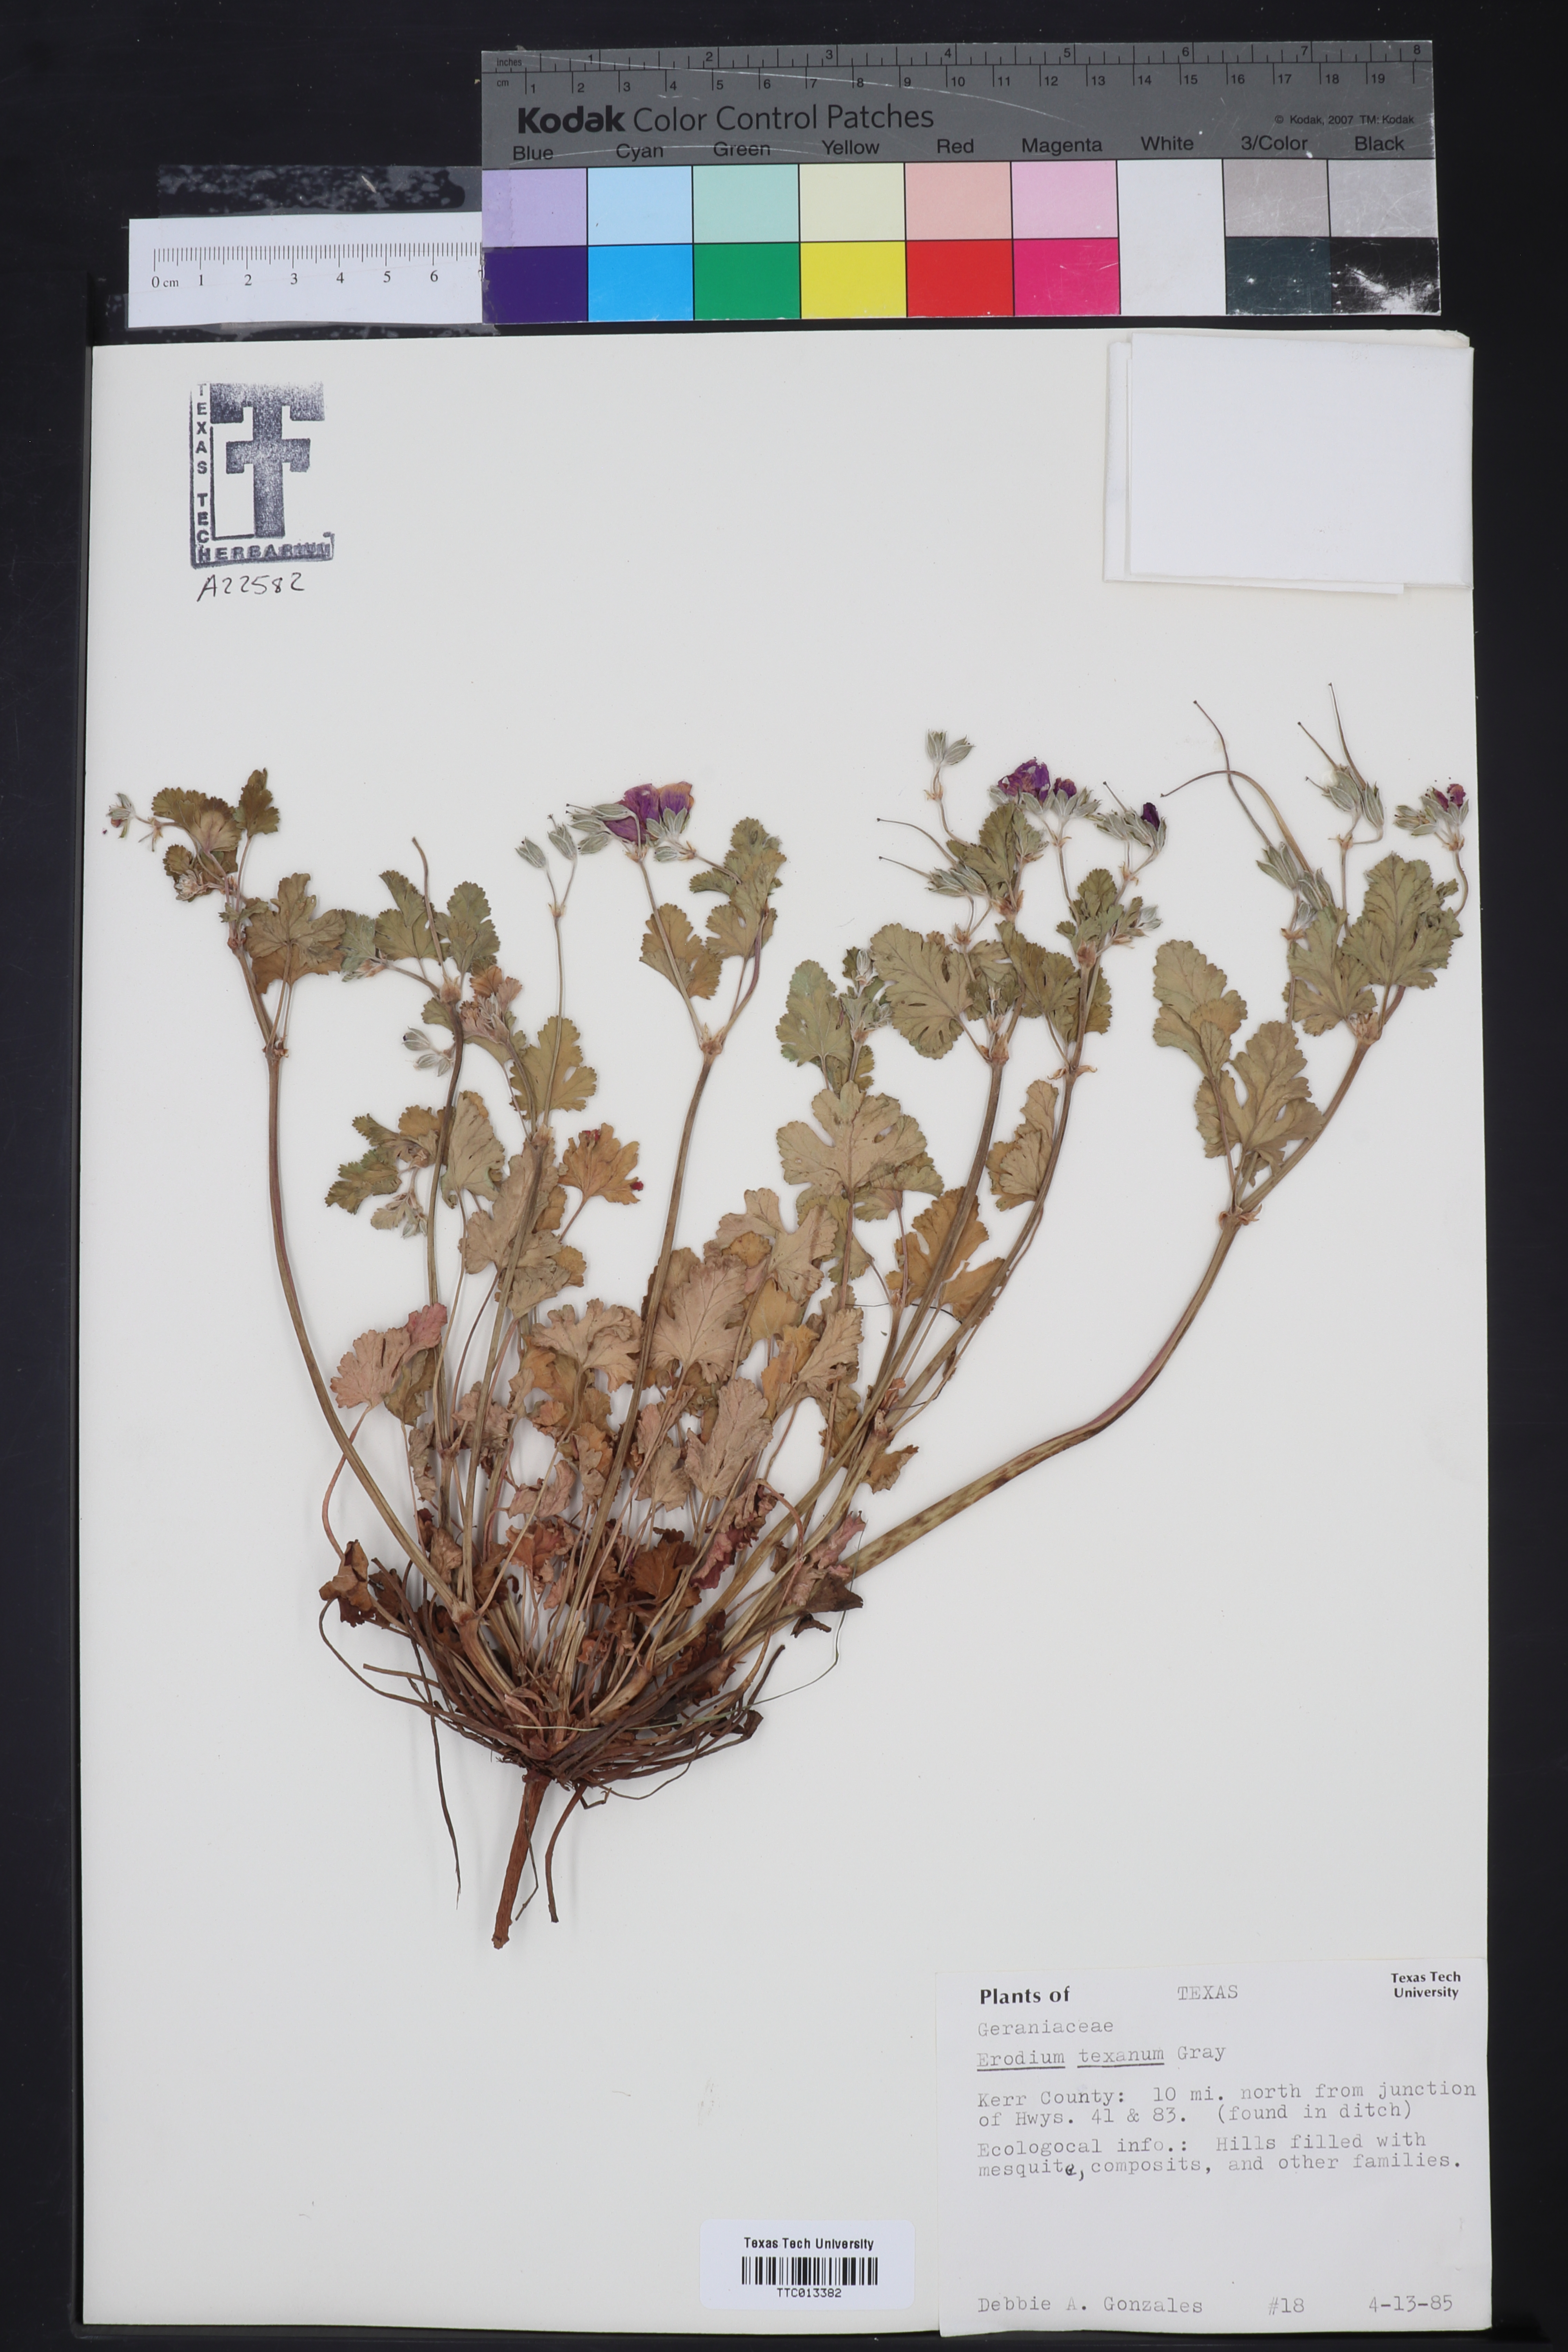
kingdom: Plantae
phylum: Tracheophyta
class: Magnoliopsida
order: Geraniales
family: Geraniaceae
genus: Erodium
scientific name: Erodium texanum
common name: Texas stork's-bill
